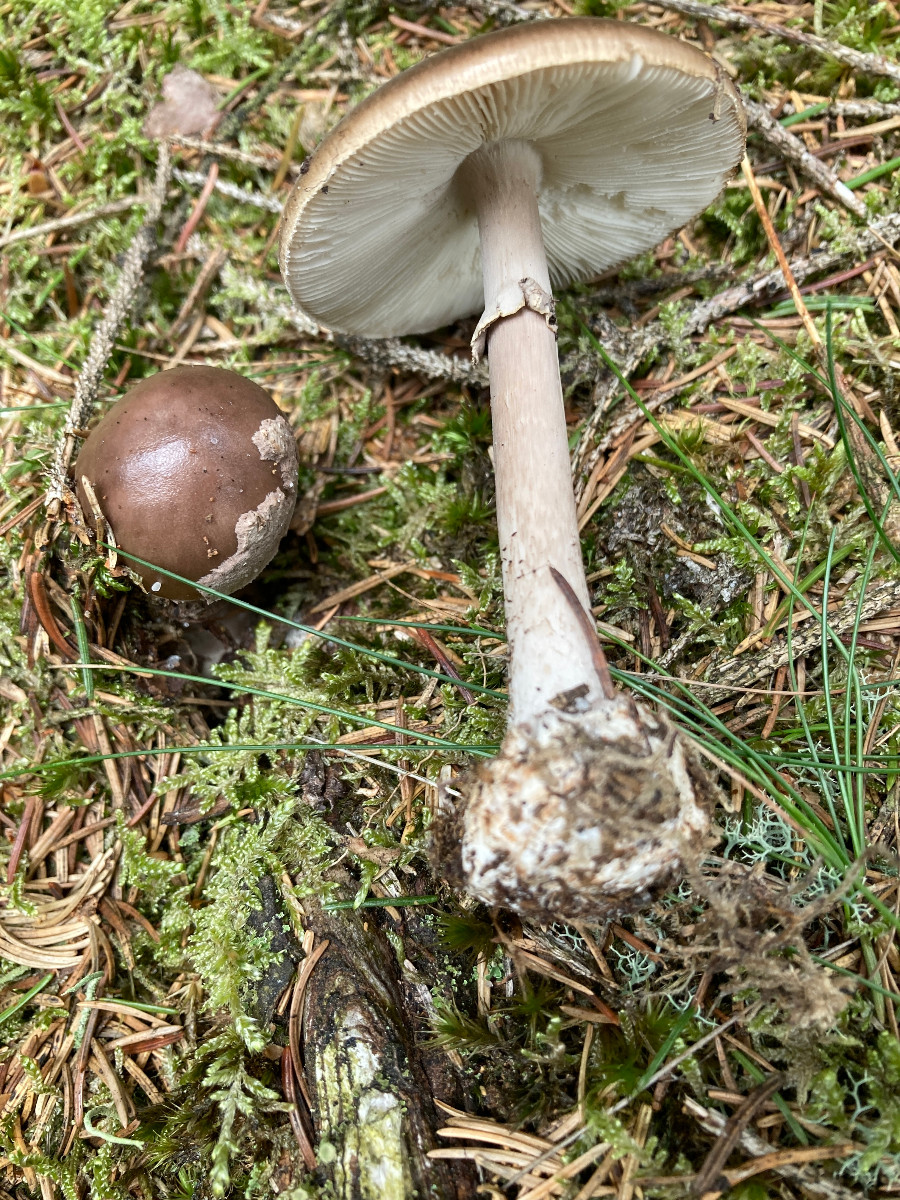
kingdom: Fungi
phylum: Basidiomycota
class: Agaricomycetes
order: Agaricales
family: Amanitaceae
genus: Amanita
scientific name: Amanita porphyria
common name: porfyr-fluesvamp
